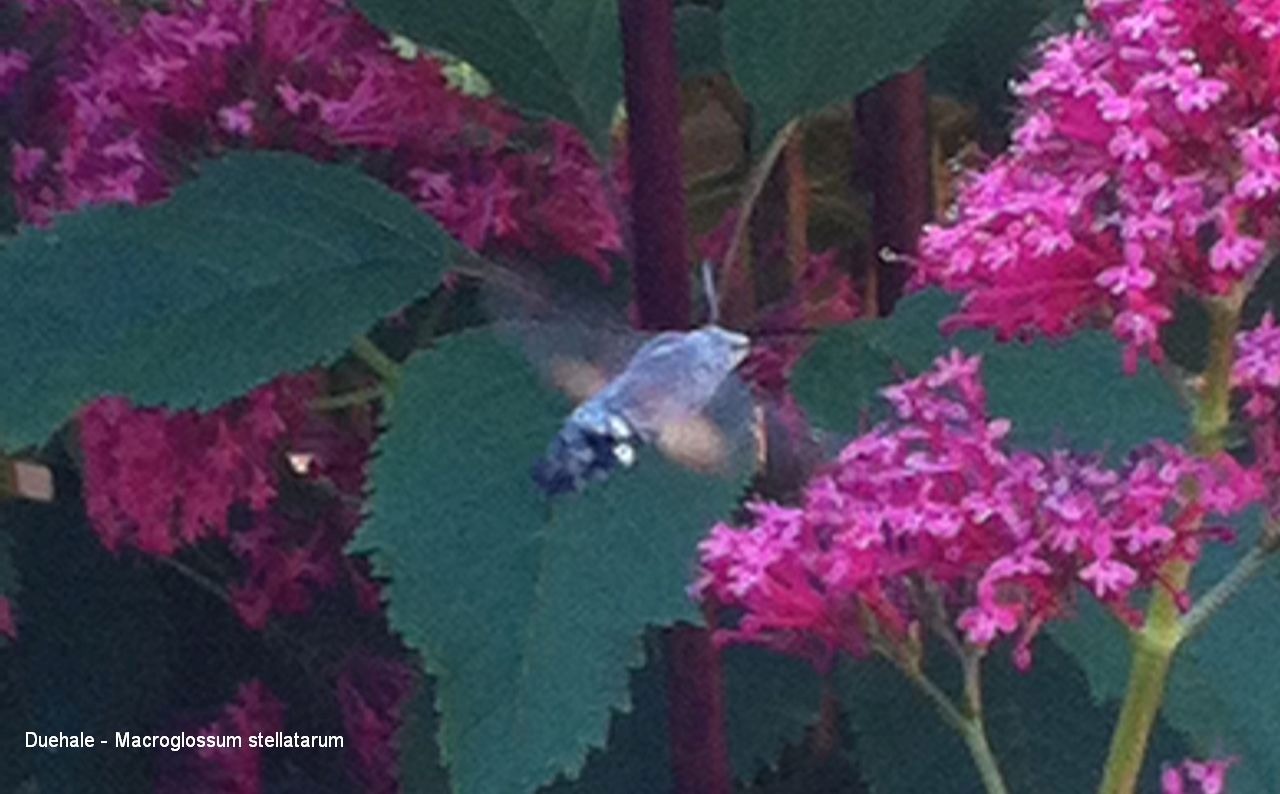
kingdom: Animalia
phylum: Arthropoda
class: Insecta
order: Lepidoptera
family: Sphingidae
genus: Macroglossum
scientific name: Macroglossum stellatarum
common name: Duehale
